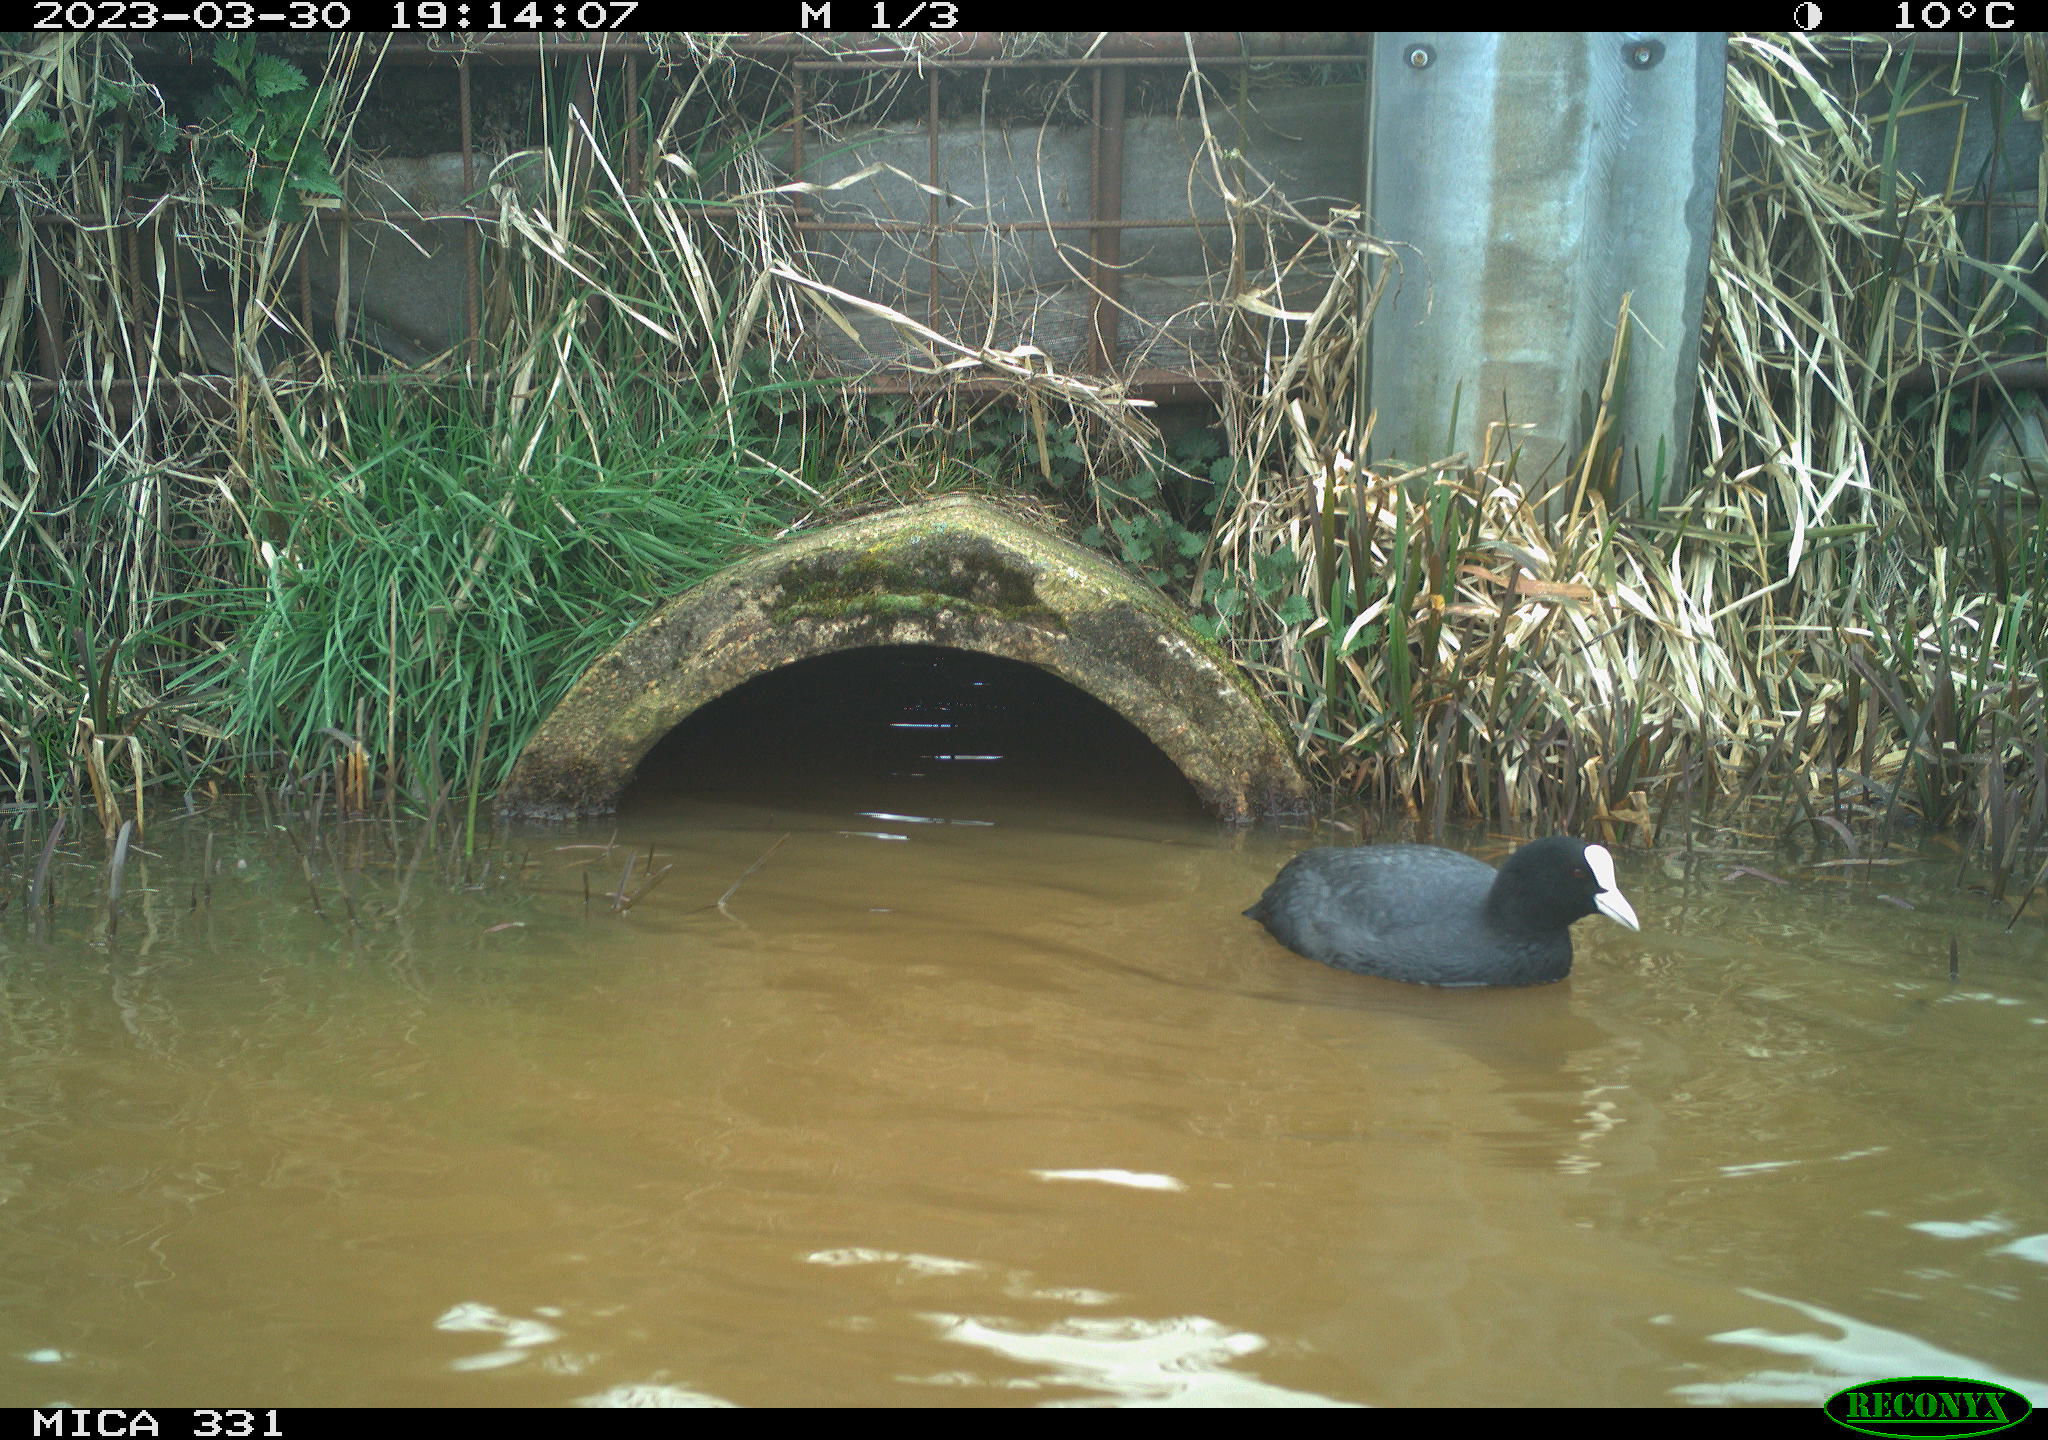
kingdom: Animalia
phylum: Chordata
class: Aves
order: Gruiformes
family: Rallidae
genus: Fulica
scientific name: Fulica atra
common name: Eurasian coot
